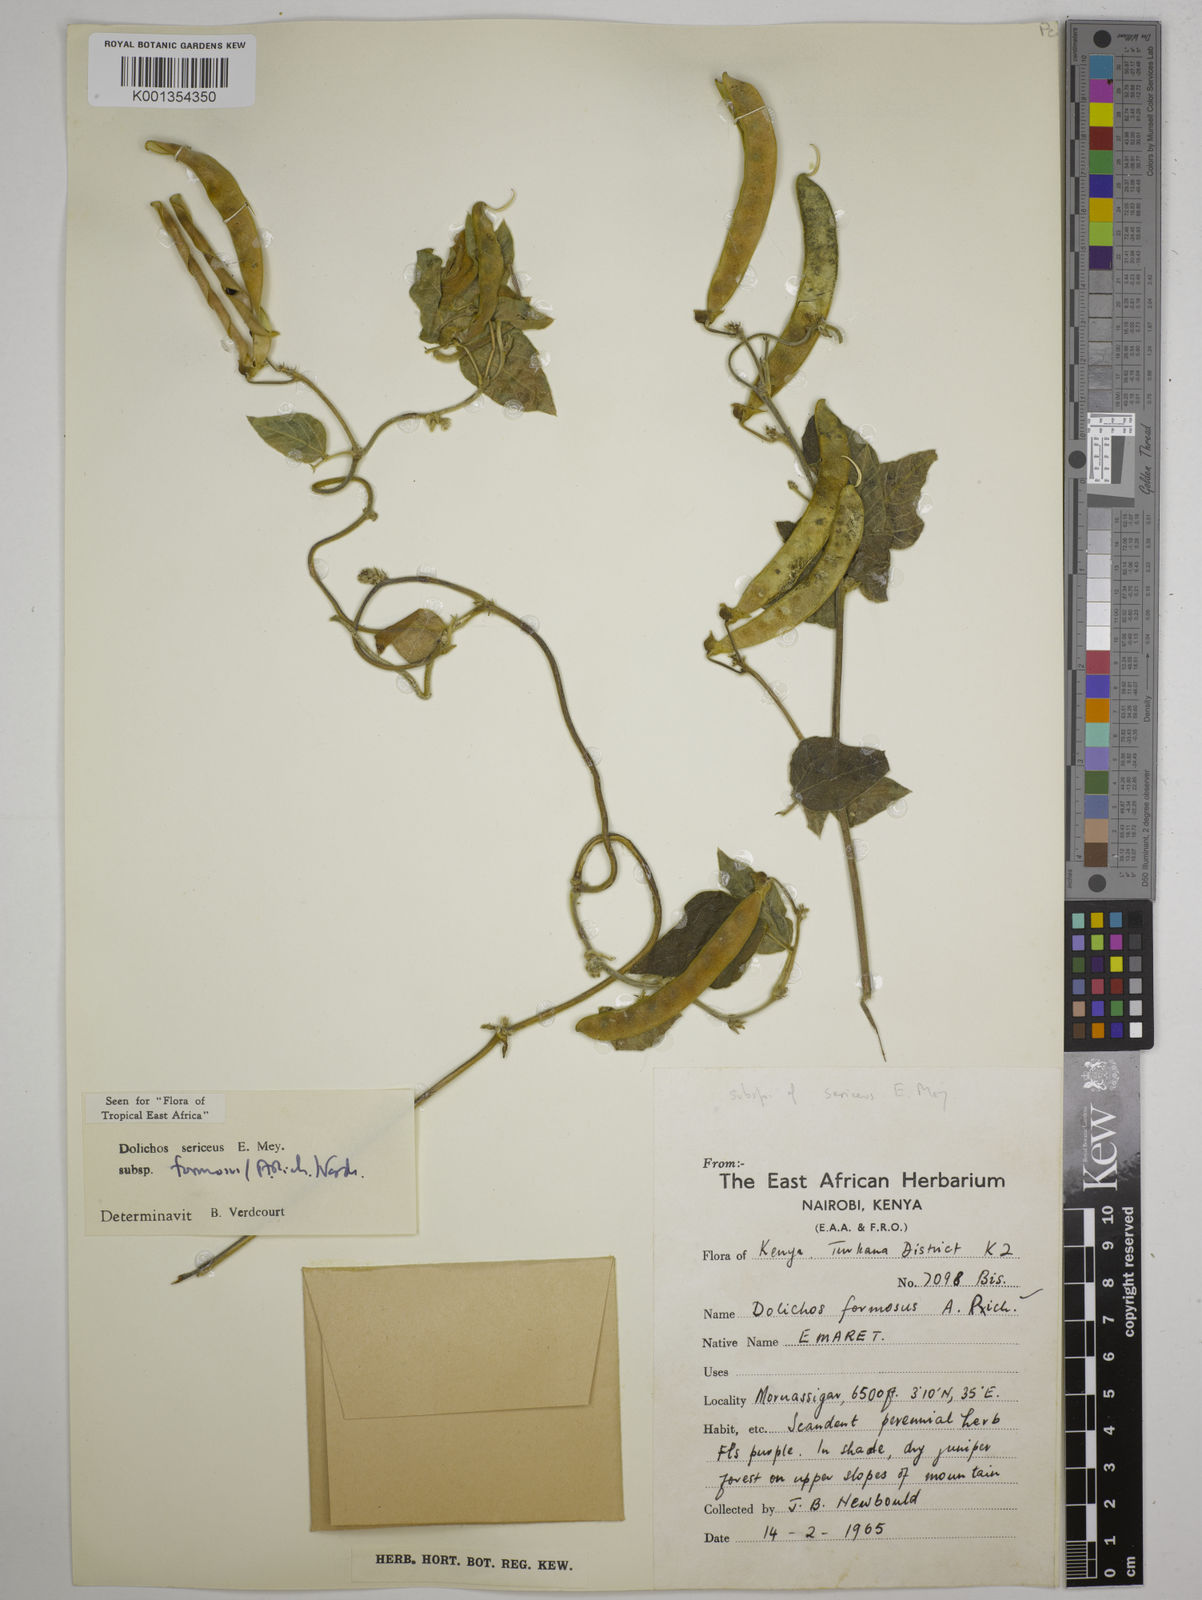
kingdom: Plantae
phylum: Tracheophyta
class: Magnoliopsida
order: Fabales
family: Fabaceae
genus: Dolichos
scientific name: Dolichos
